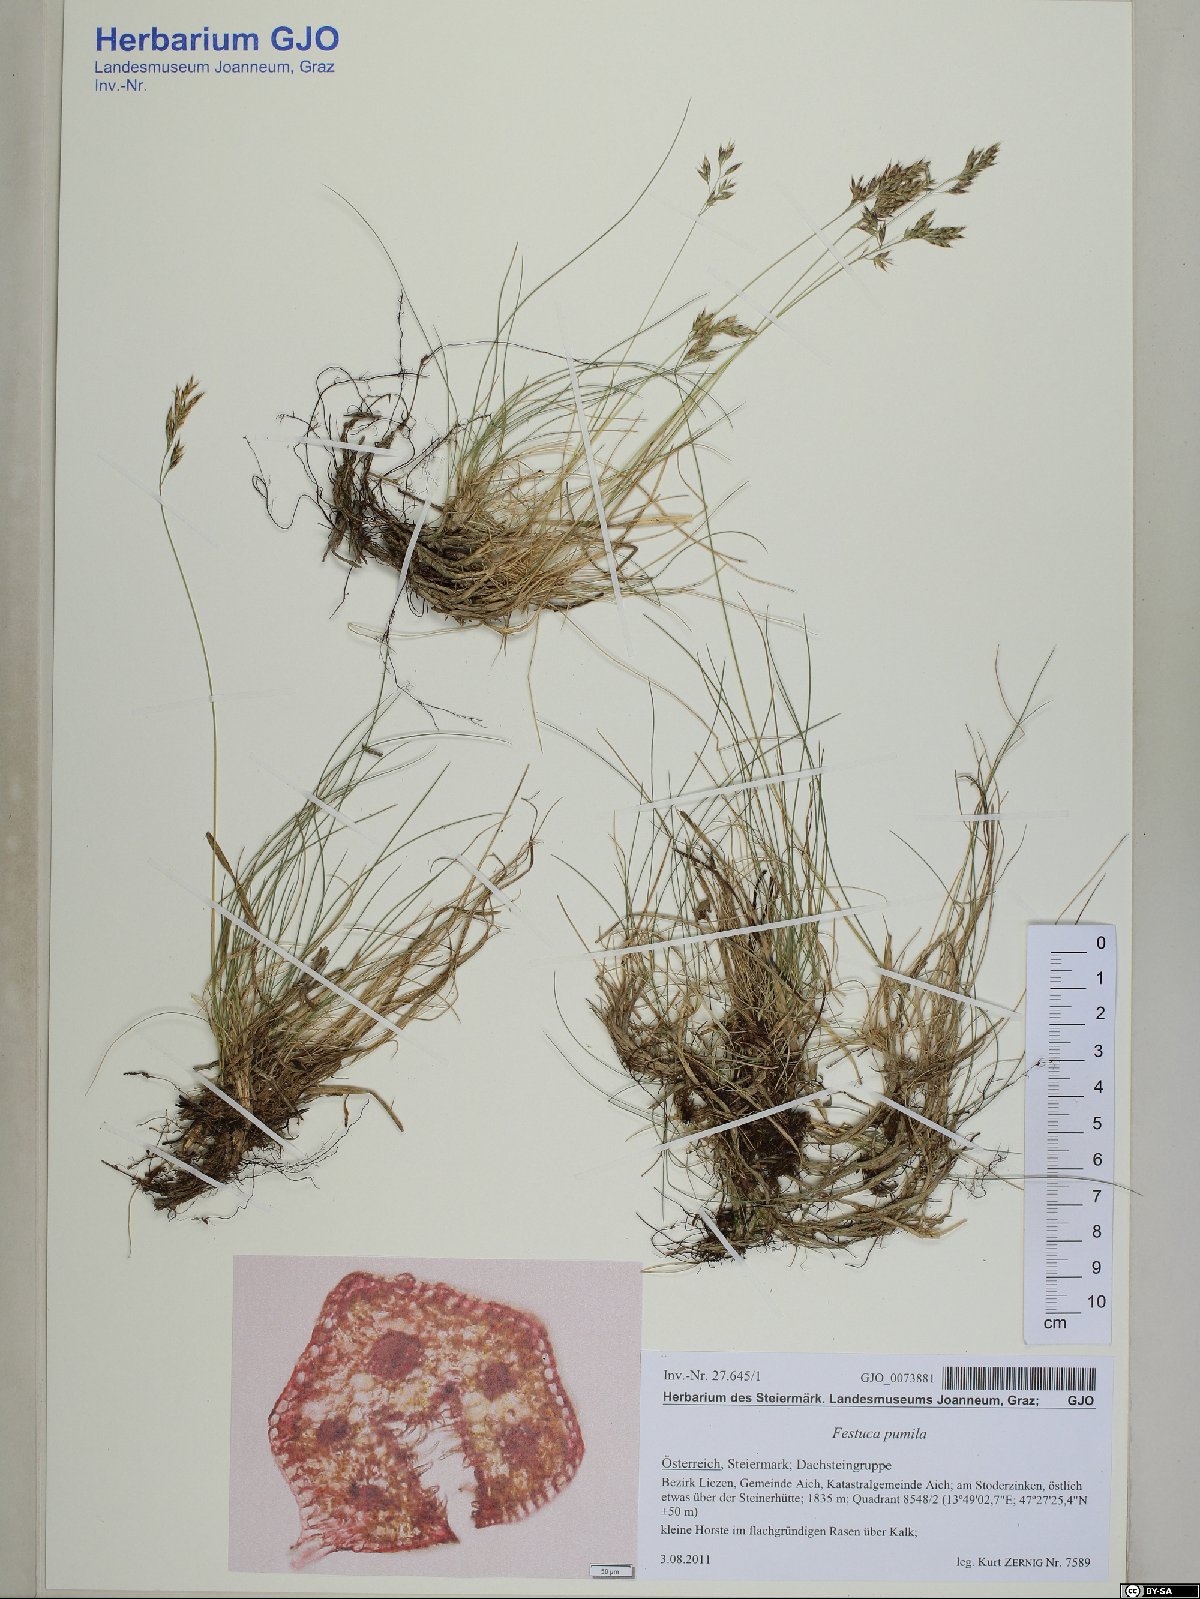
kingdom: Plantae
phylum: Tracheophyta
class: Liliopsida
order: Poales
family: Poaceae
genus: Festuca
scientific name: Festuca quadriflora
